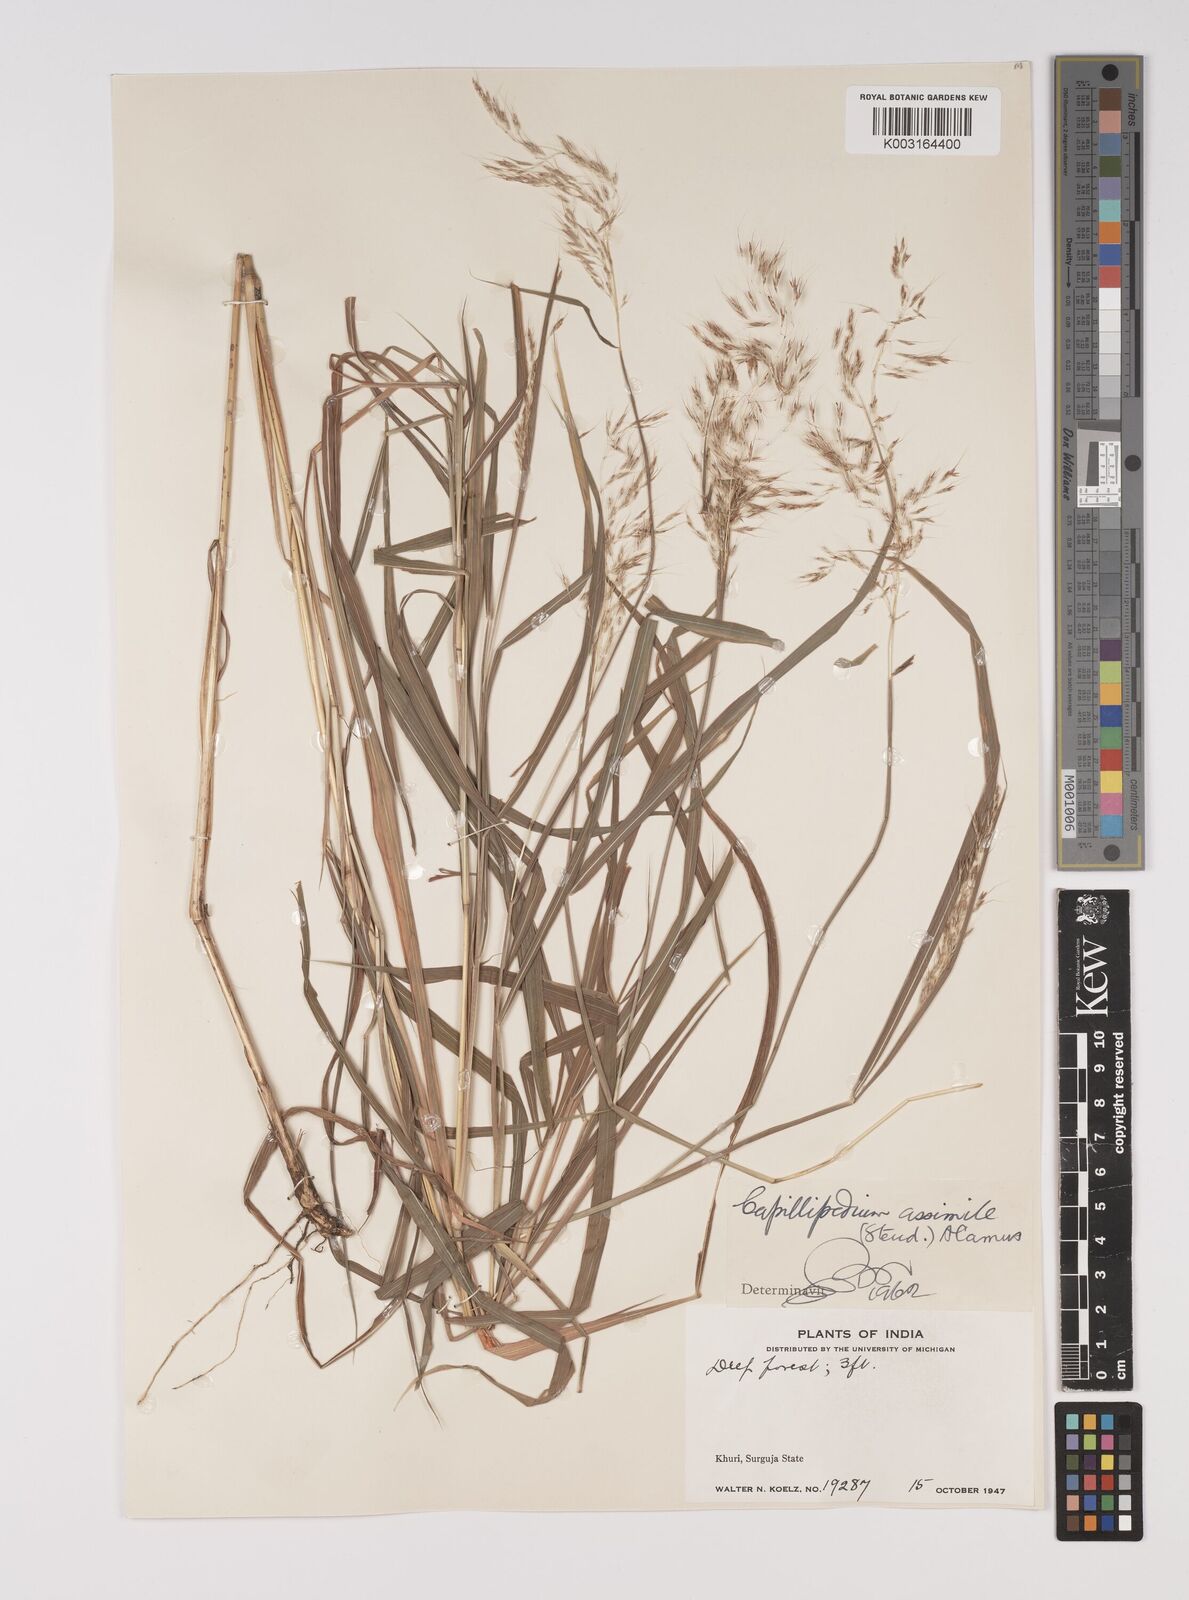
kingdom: Plantae
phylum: Tracheophyta
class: Liliopsida
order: Poales
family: Poaceae
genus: Capillipedium
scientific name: Capillipedium assimile
